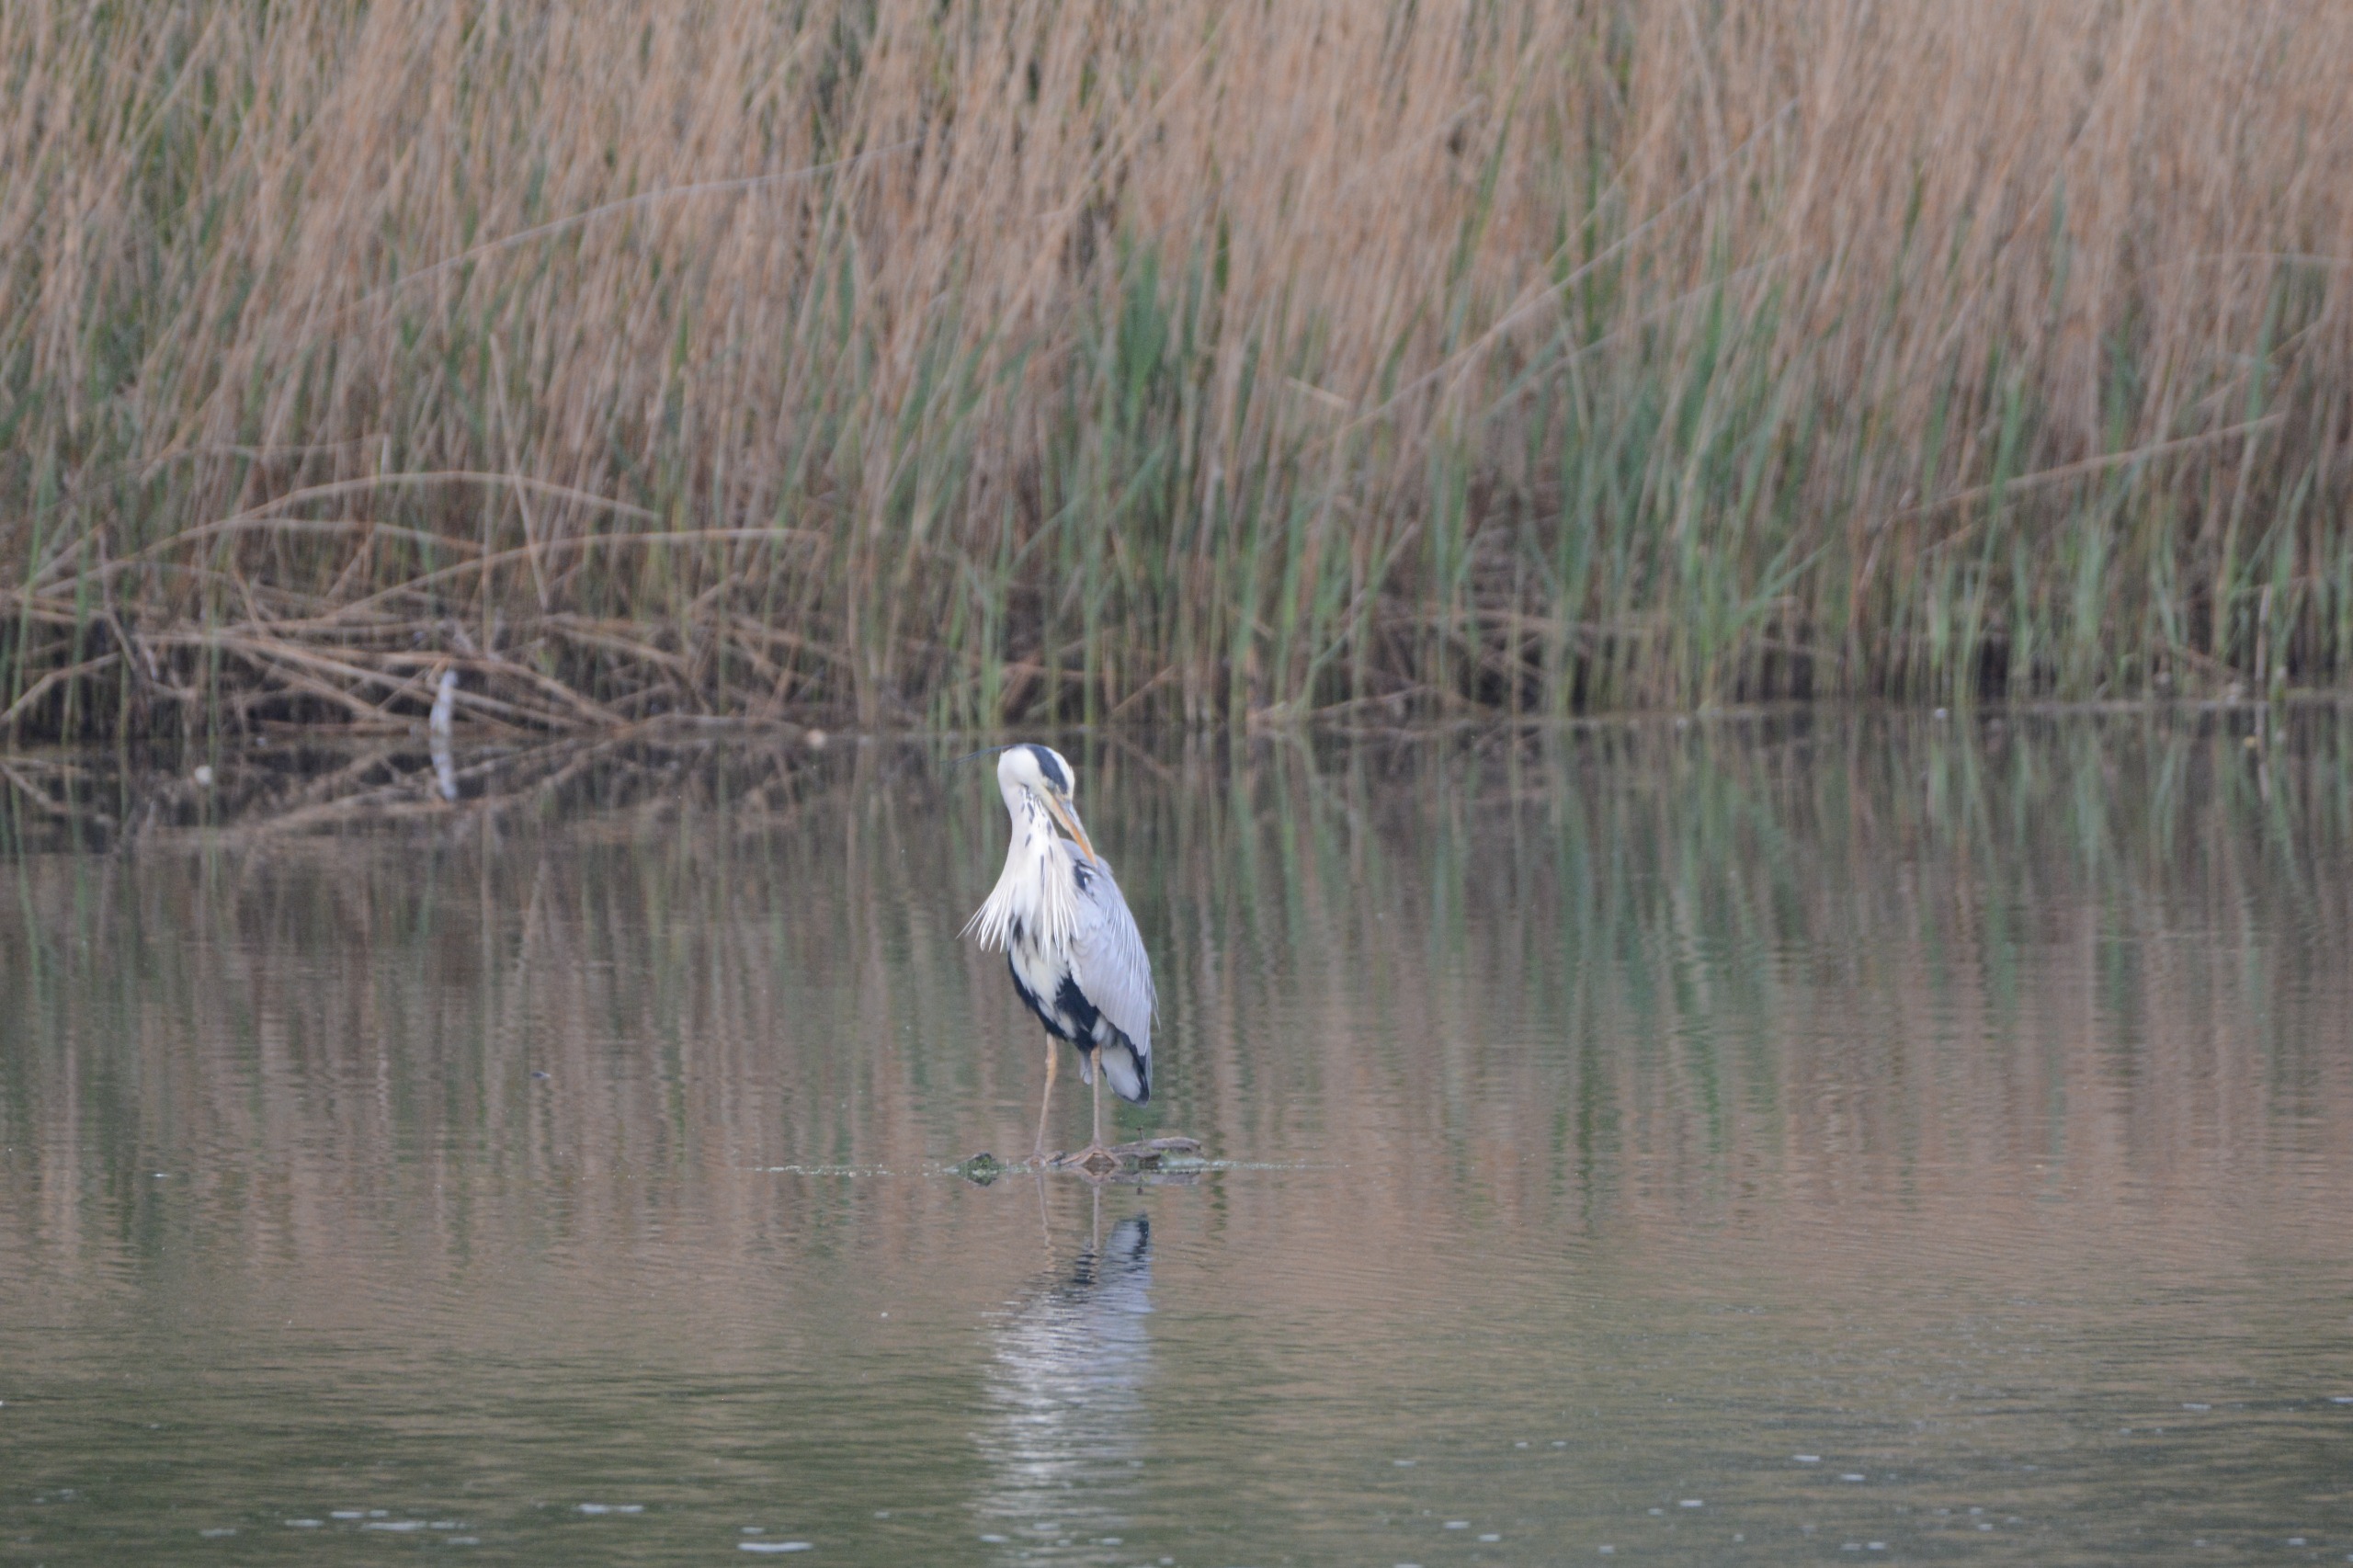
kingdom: Animalia
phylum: Chordata
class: Aves
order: Pelecaniformes
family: Ardeidae
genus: Ardea
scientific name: Ardea cinerea
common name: Fiskehejre
